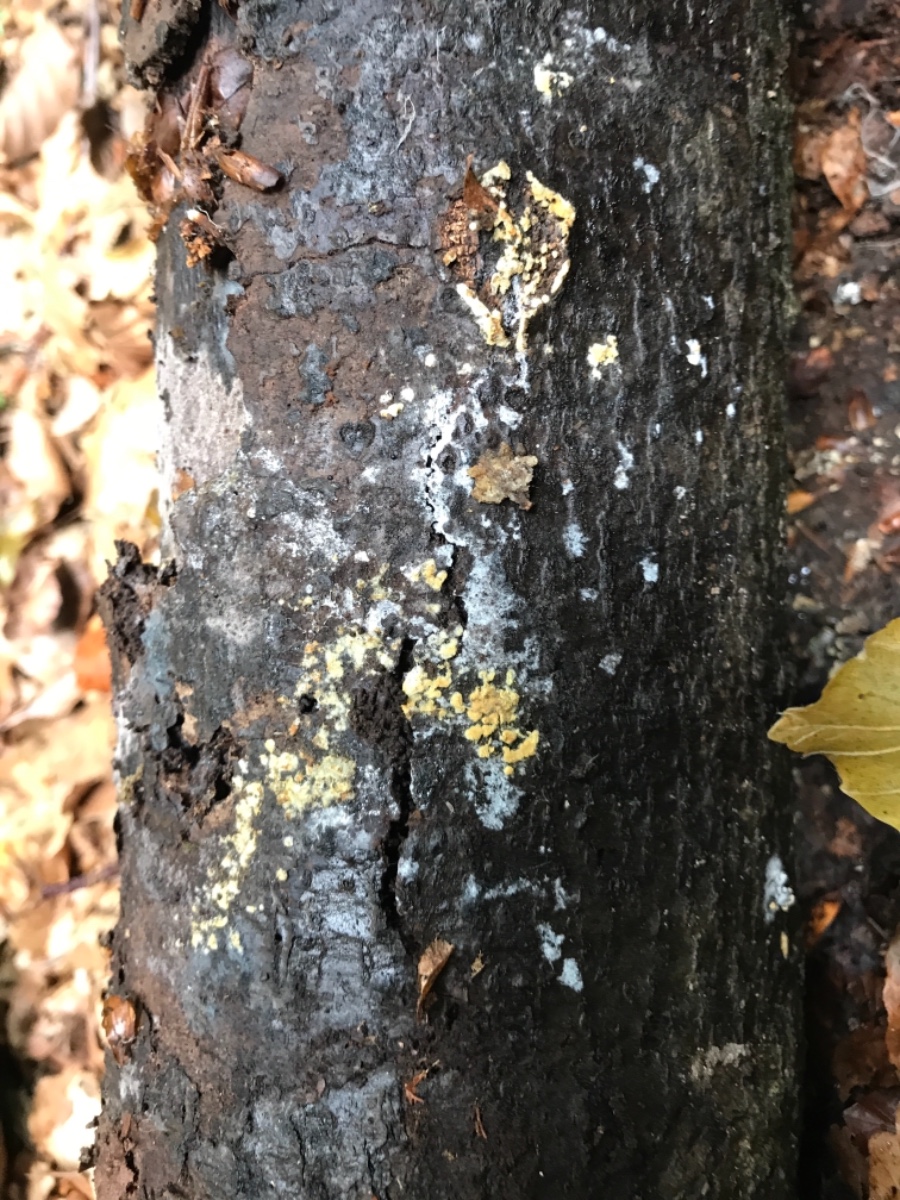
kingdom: Fungi
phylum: Basidiomycota
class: Agaricomycetes
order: Cantharellales
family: Botryobasidiaceae
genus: Botryobasidium
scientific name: Botryobasidium aureum
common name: gylden spindhinde
